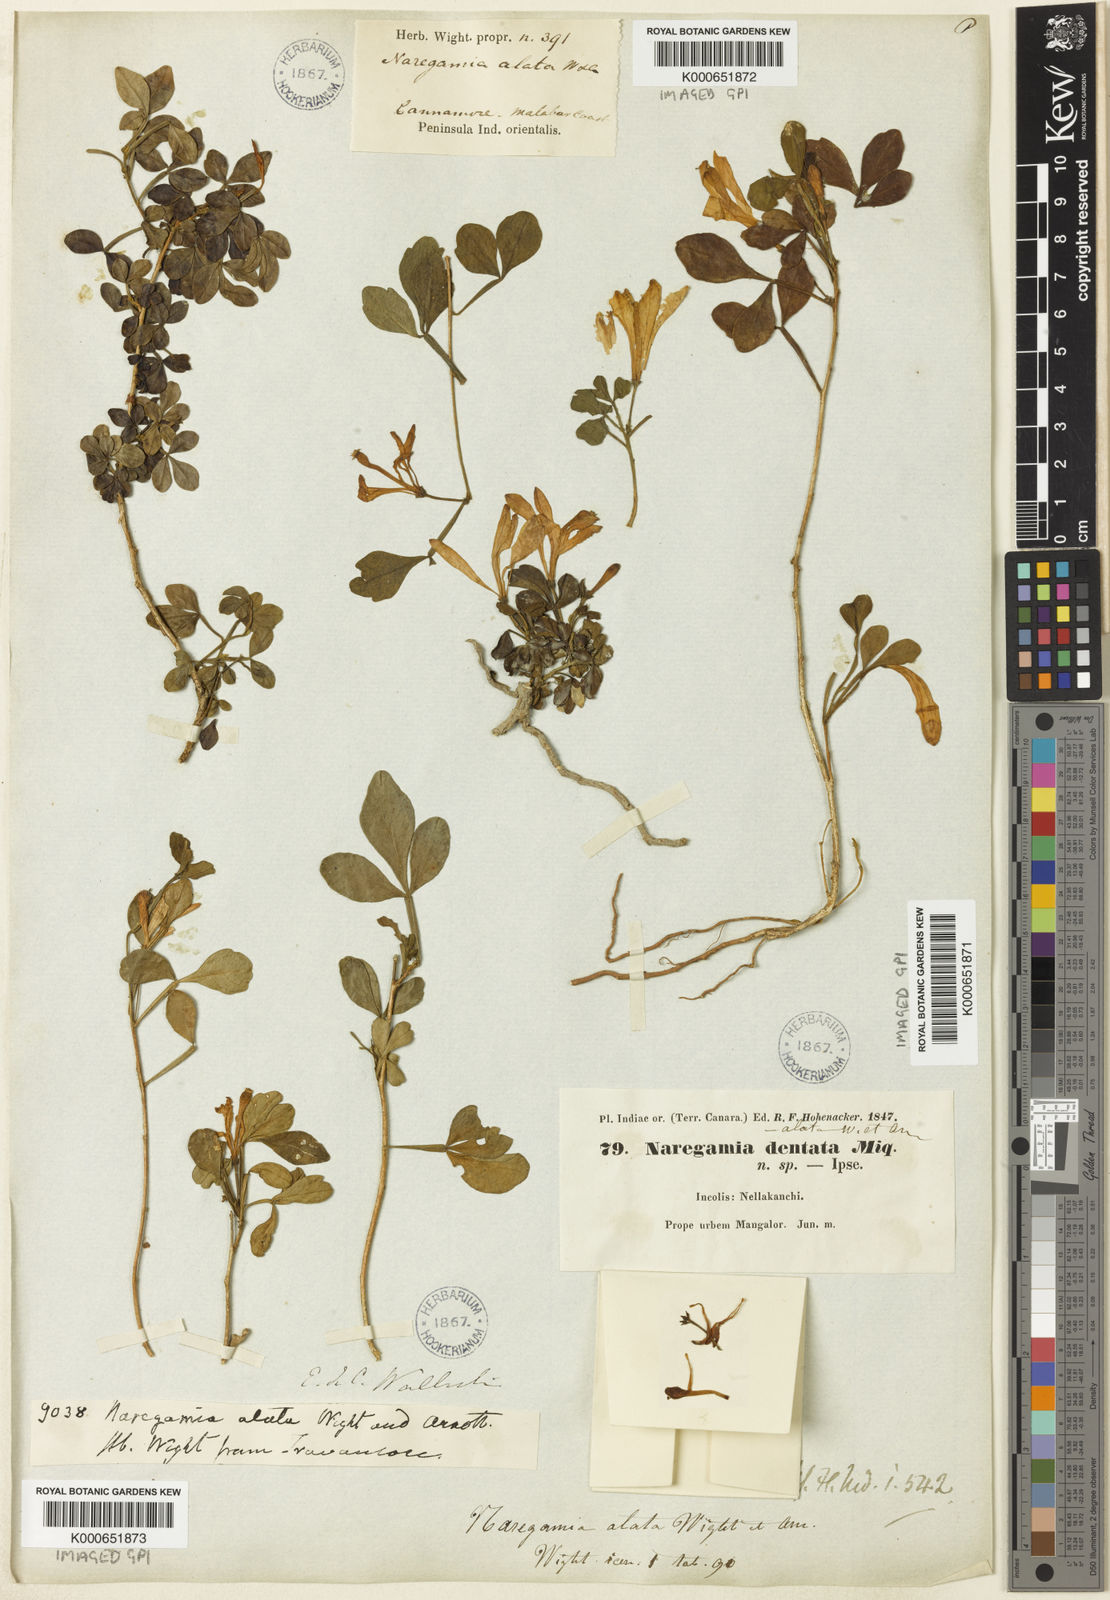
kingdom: Plantae
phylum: Tracheophyta
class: Magnoliopsida
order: Sapindales
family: Meliaceae
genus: Naregamia
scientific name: Naregamia alata
